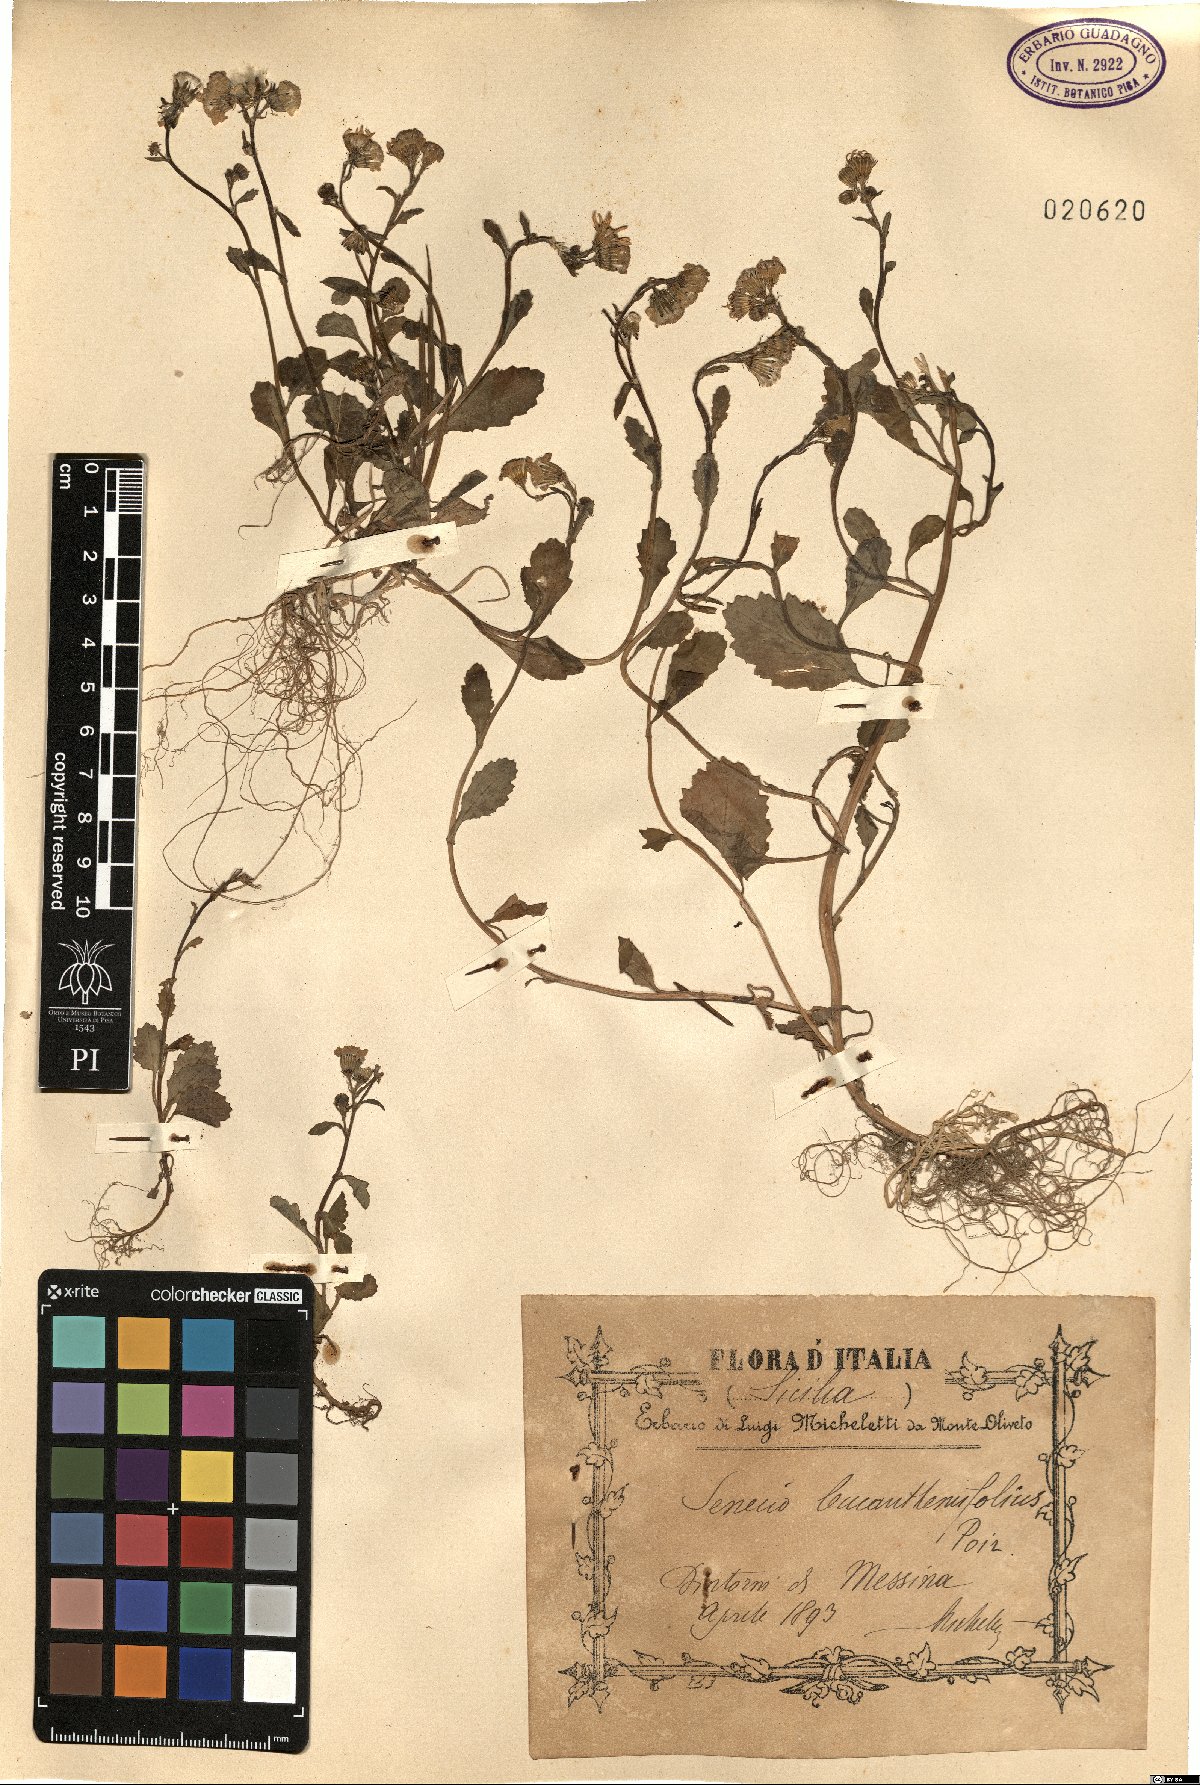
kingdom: Plantae
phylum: Tracheophyta
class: Magnoliopsida
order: Asterales
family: Asteraceae
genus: Senecio
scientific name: Senecio leucanthemifolius
